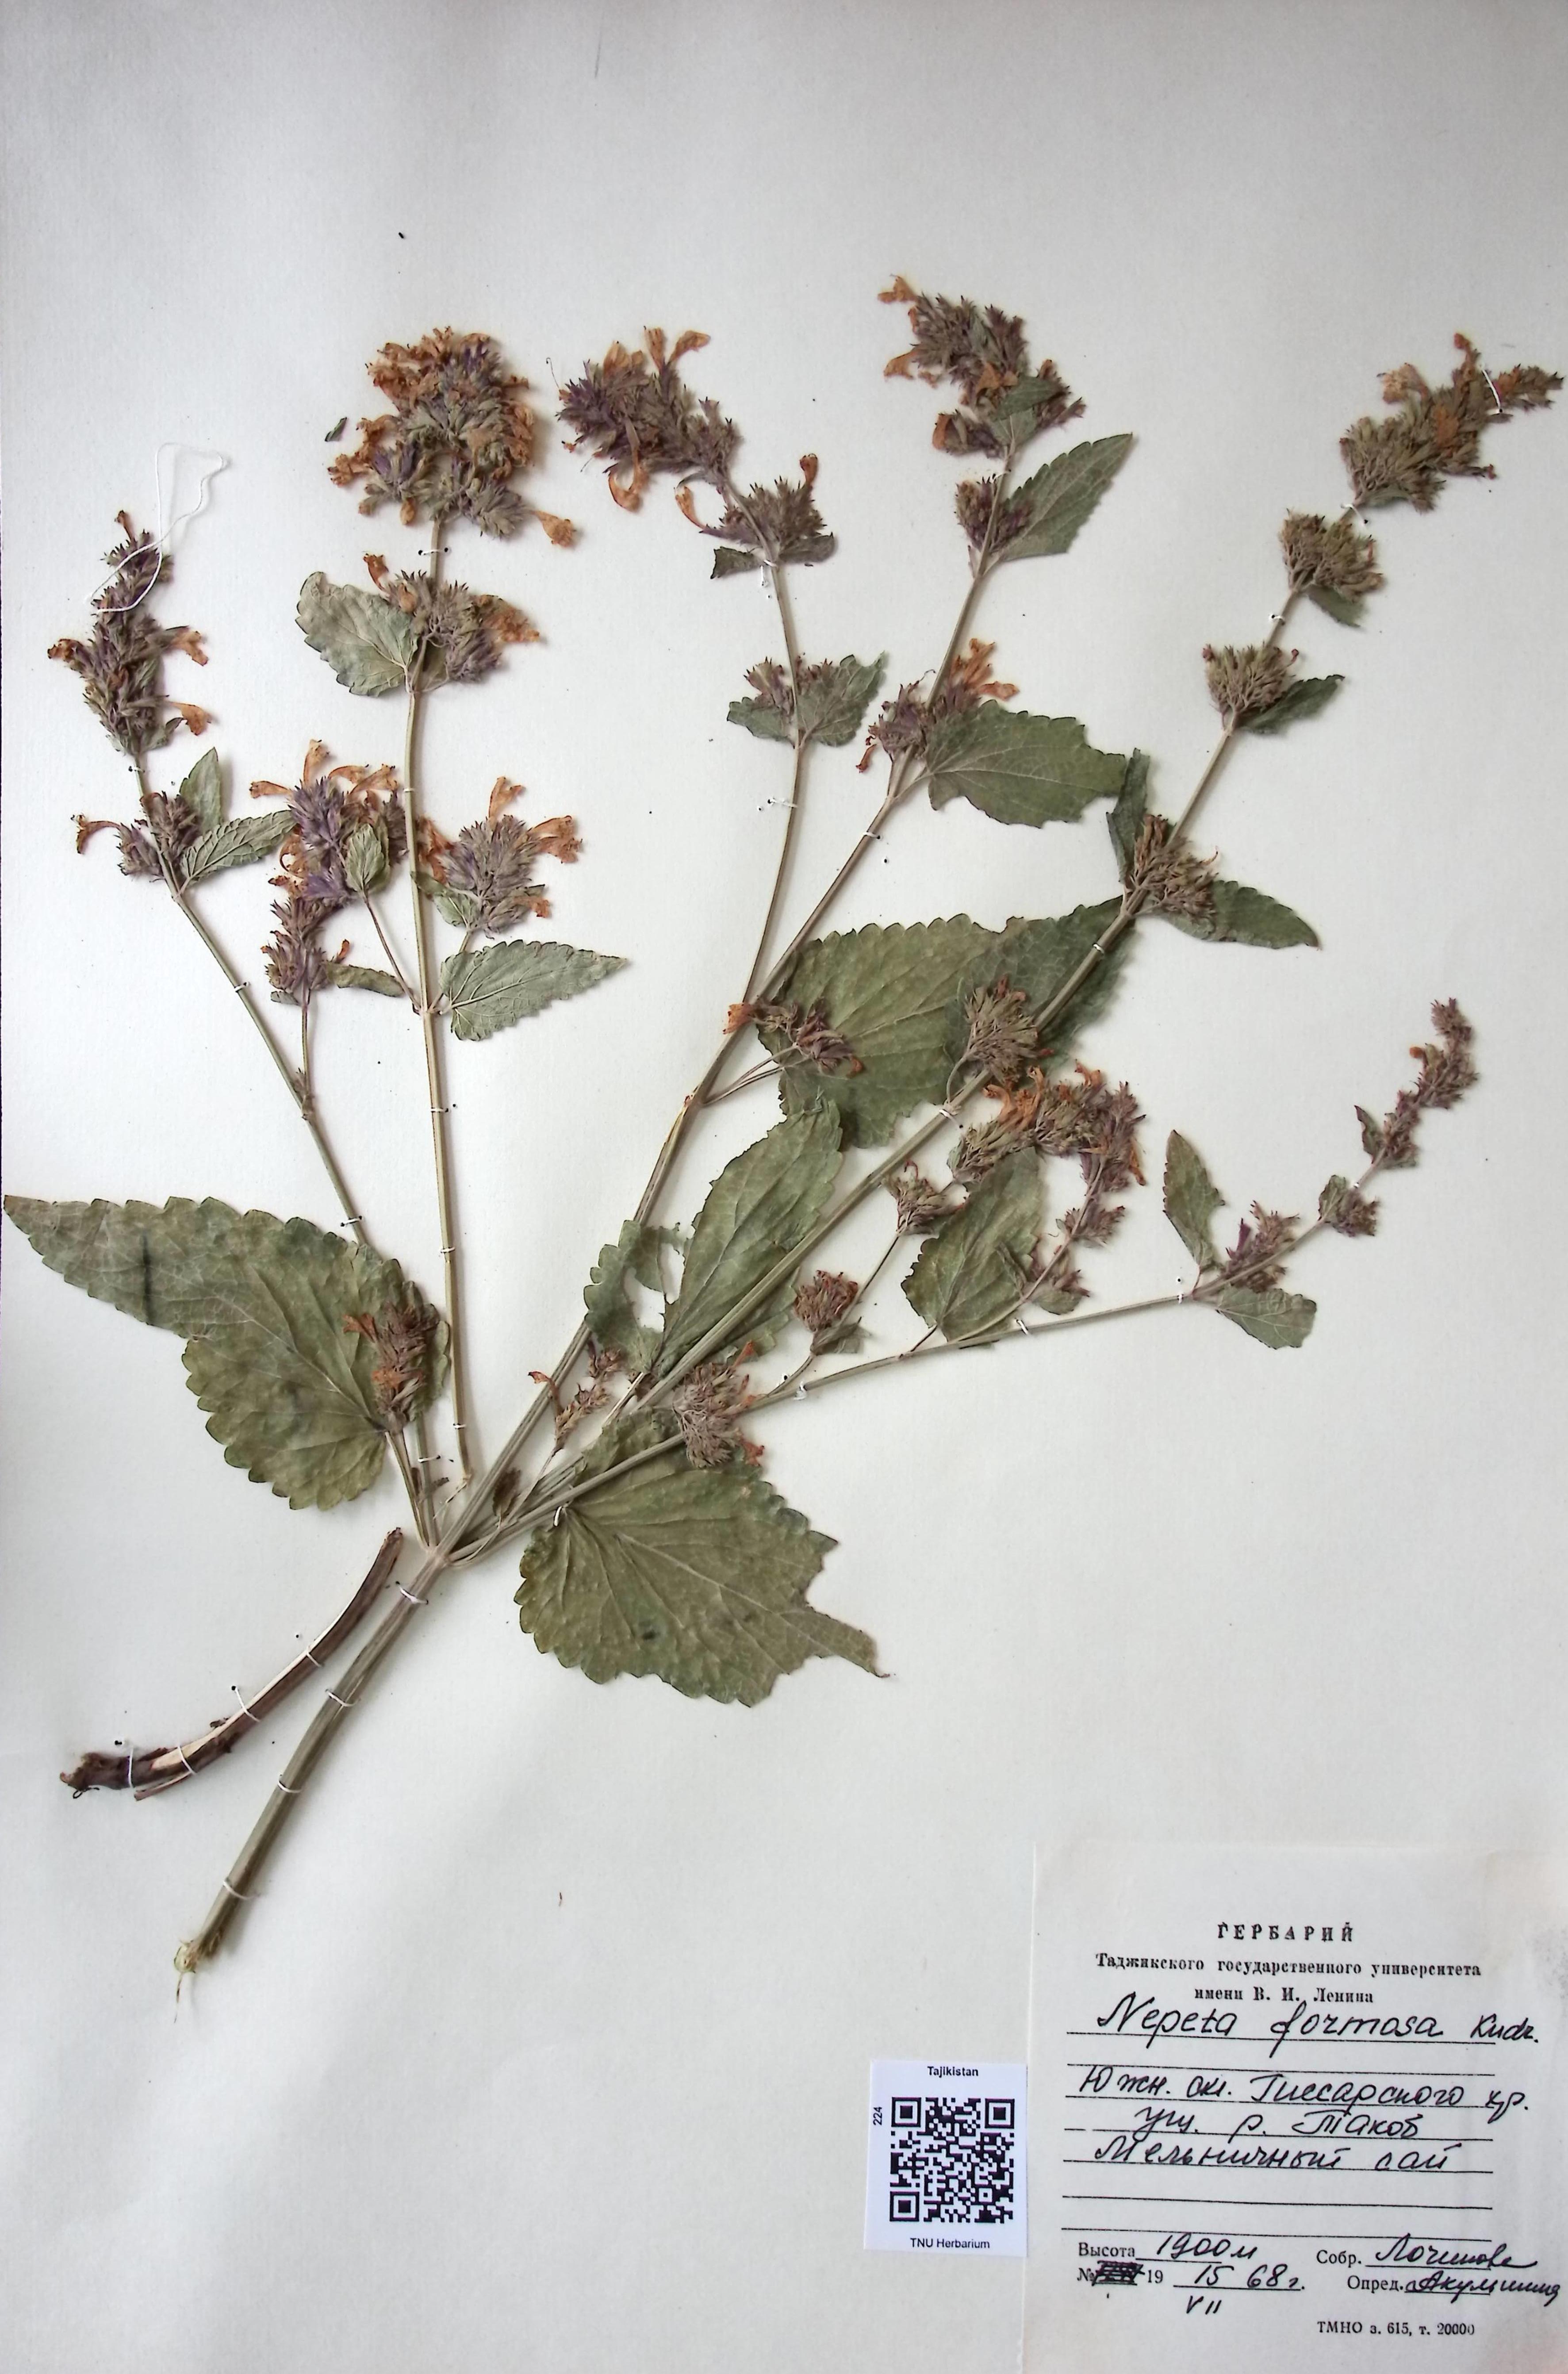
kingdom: Plantae
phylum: Tracheophyta
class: Magnoliopsida
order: Lamiales
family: Lamiaceae
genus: Nepeta
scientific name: Nepeta formosa
